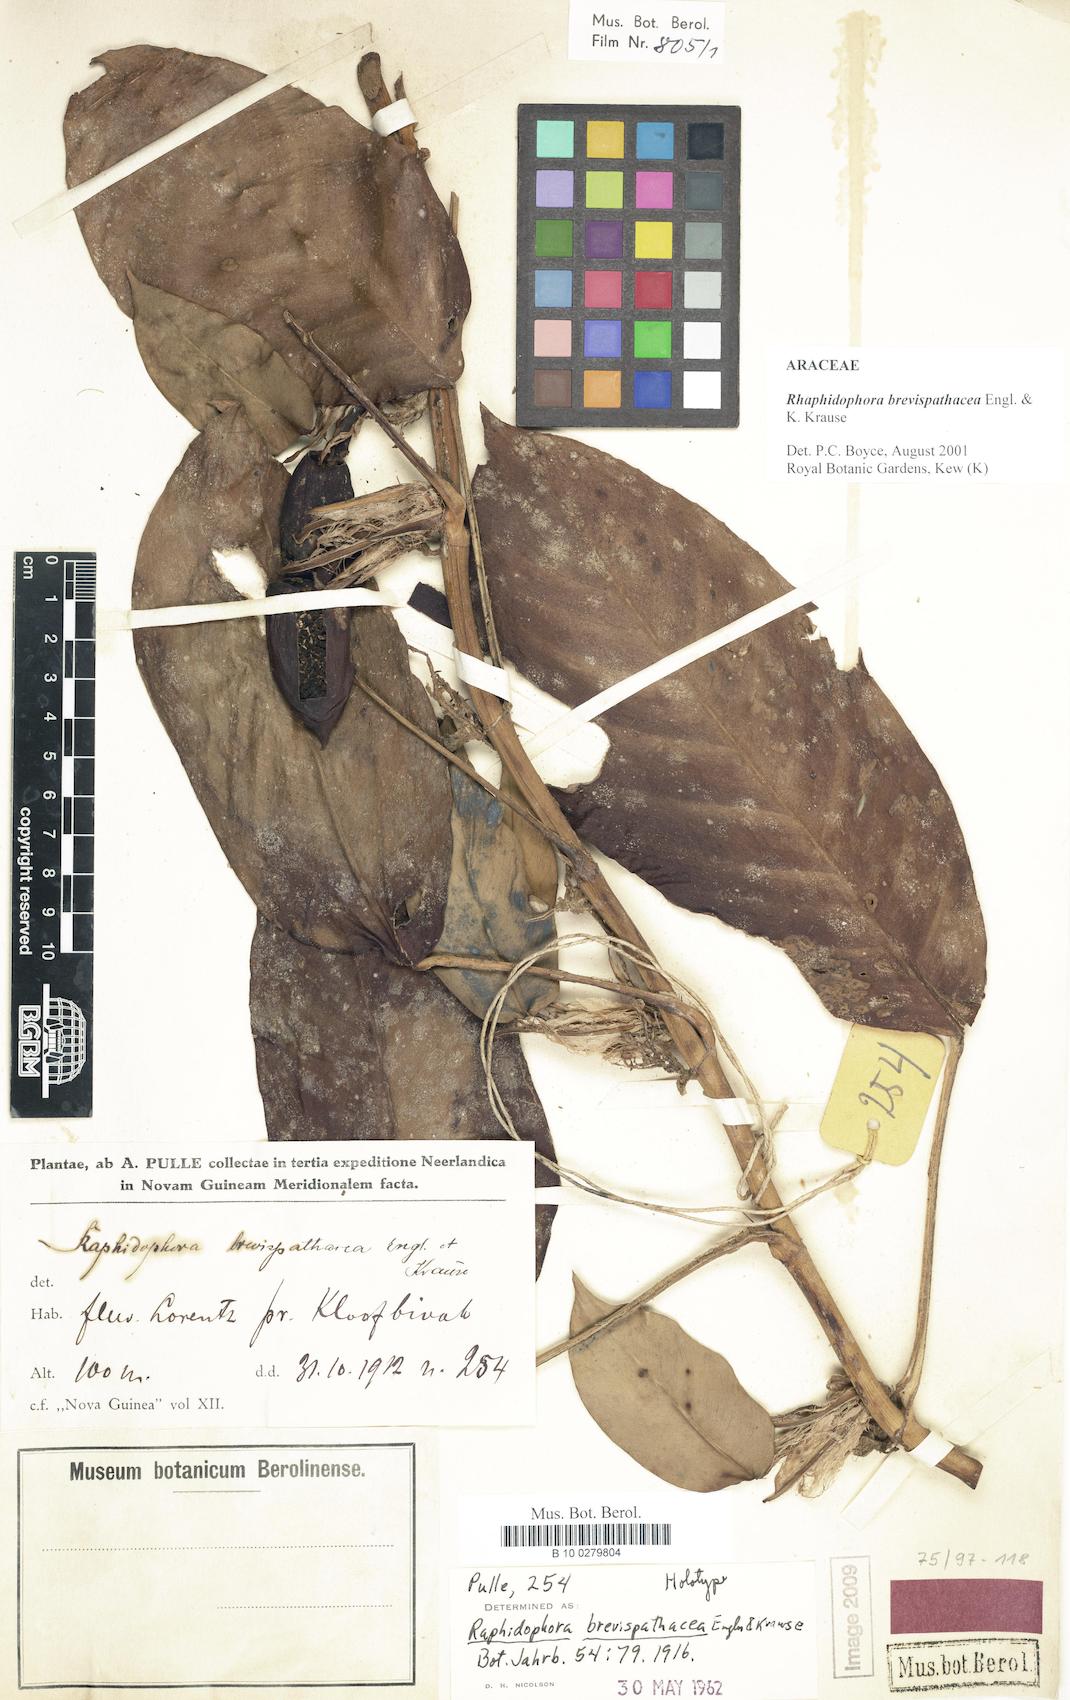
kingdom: Plantae
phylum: Tracheophyta
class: Liliopsida
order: Alismatales
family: Araceae
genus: Rhaphidophora
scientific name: Rhaphidophora brevispathacea
